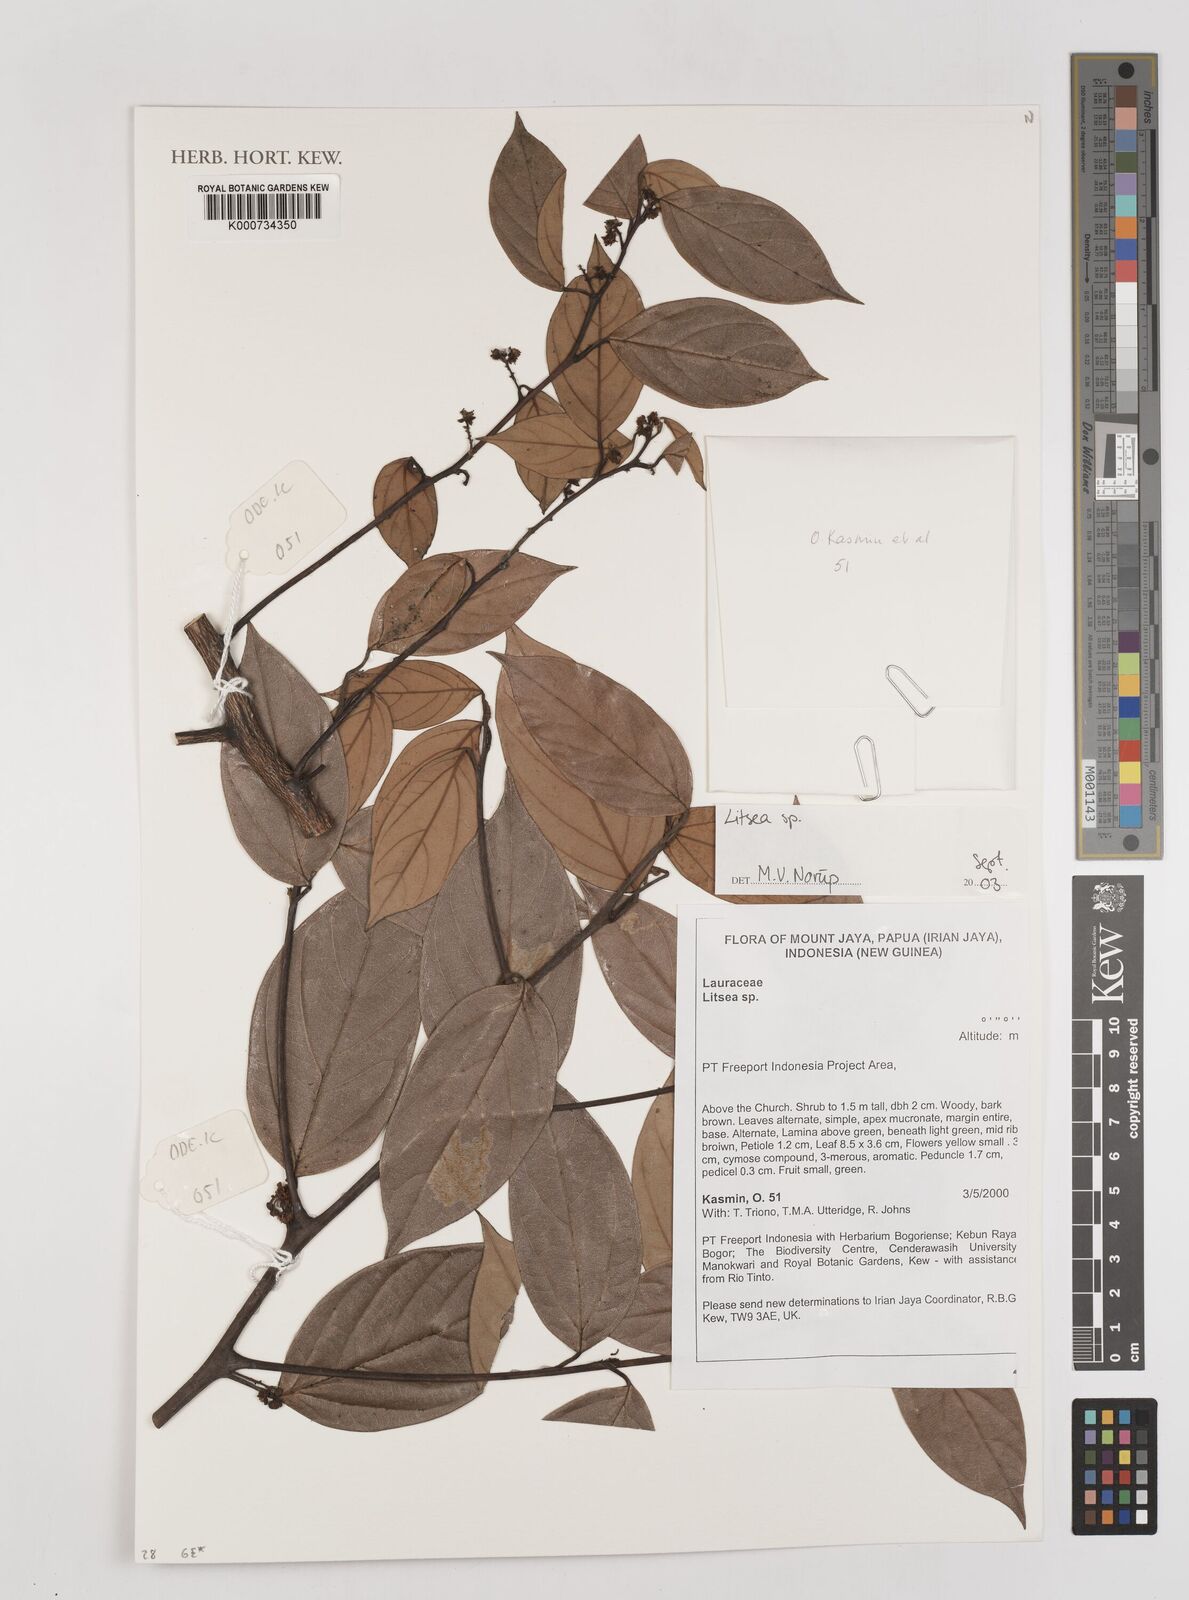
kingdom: Plantae
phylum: Tracheophyta
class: Magnoliopsida
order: Laurales
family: Lauraceae
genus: Litsea
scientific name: Litsea
